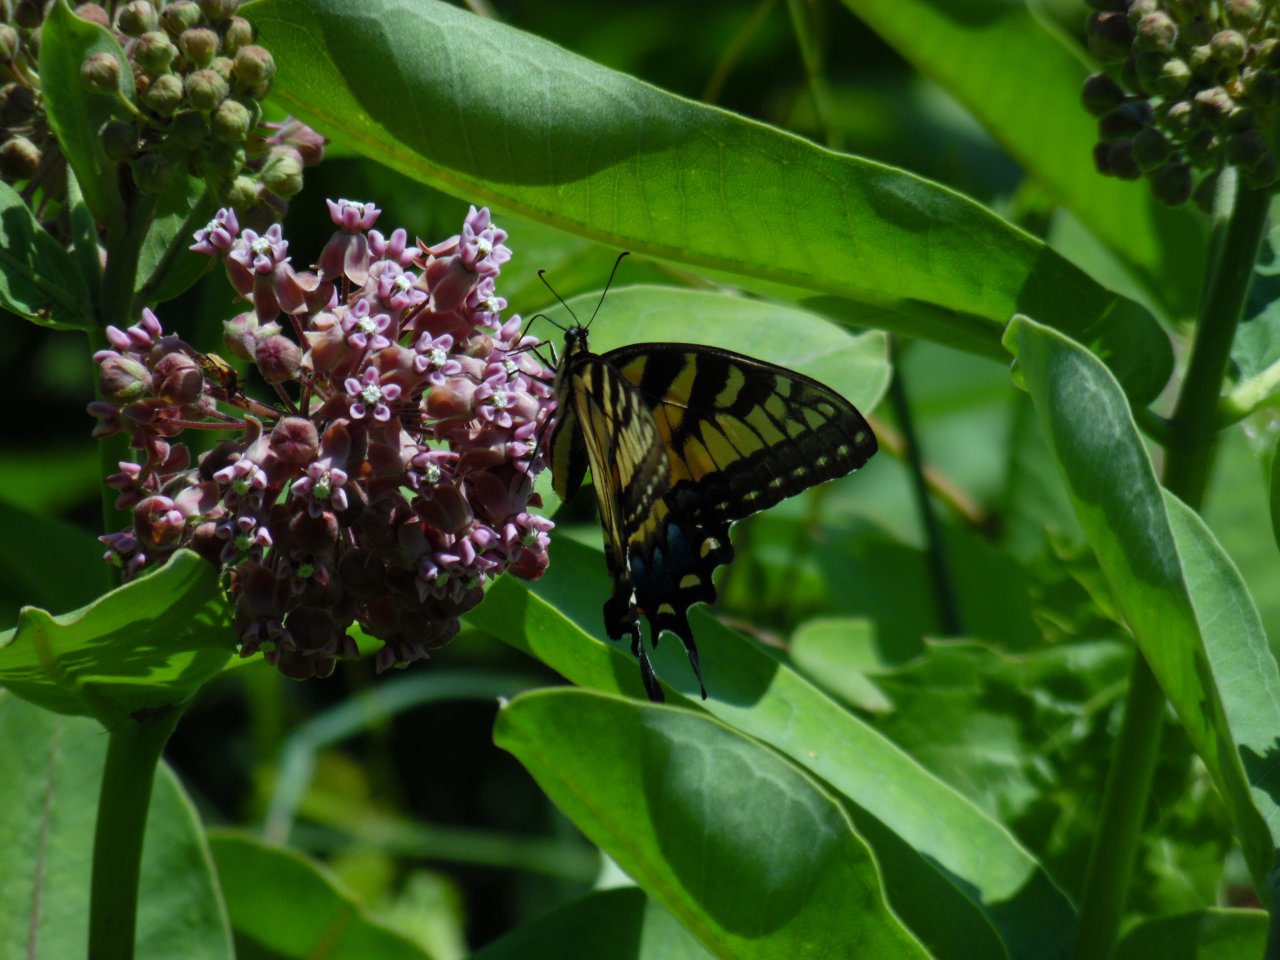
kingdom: Animalia
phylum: Arthropoda
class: Insecta
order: Lepidoptera
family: Papilionidae
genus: Pterourus
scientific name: Pterourus glaucus
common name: Eastern Tiger Swallowtail
